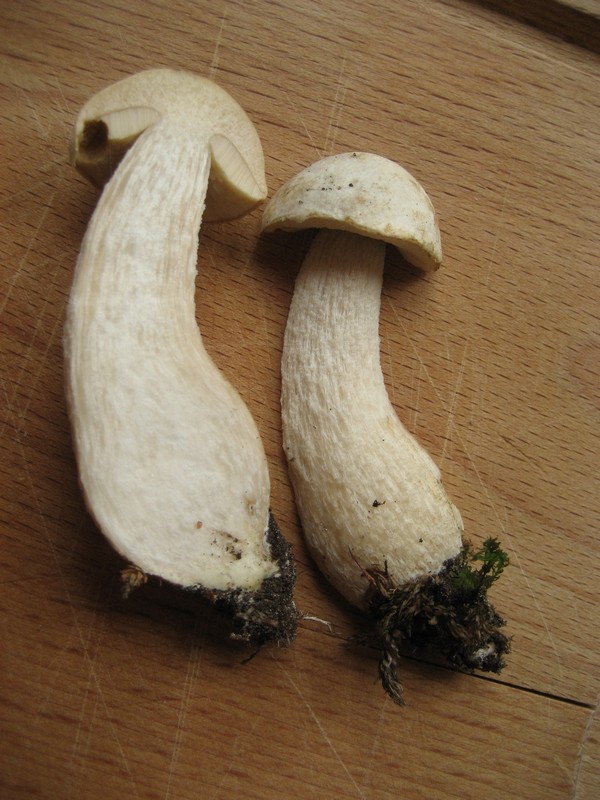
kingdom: Fungi
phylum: Basidiomycota
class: Agaricomycetes
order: Boletales
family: Boletaceae
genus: Leccinum
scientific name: Leccinum scabrum
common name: hvid skælrørhat
